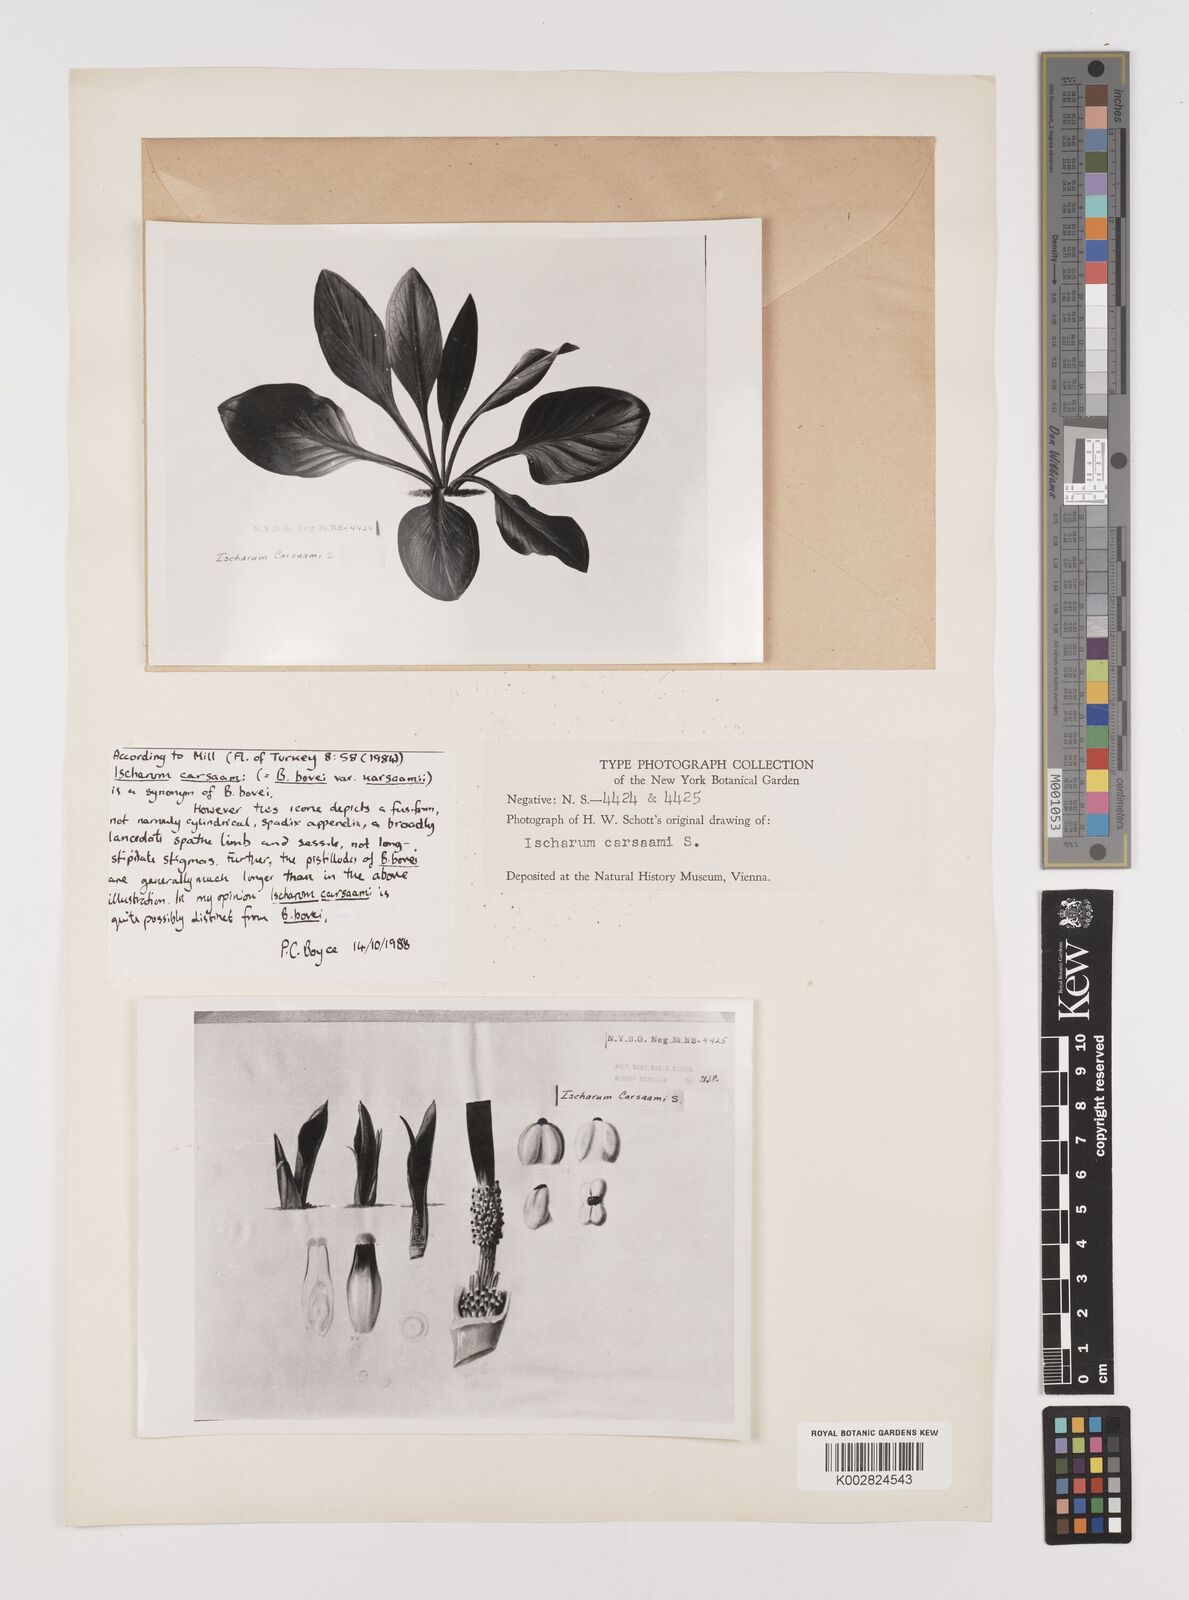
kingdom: Plantae
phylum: Tracheophyta
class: Liliopsida
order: Alismatales
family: Araceae
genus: Biarum
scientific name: Biarum crispulum
